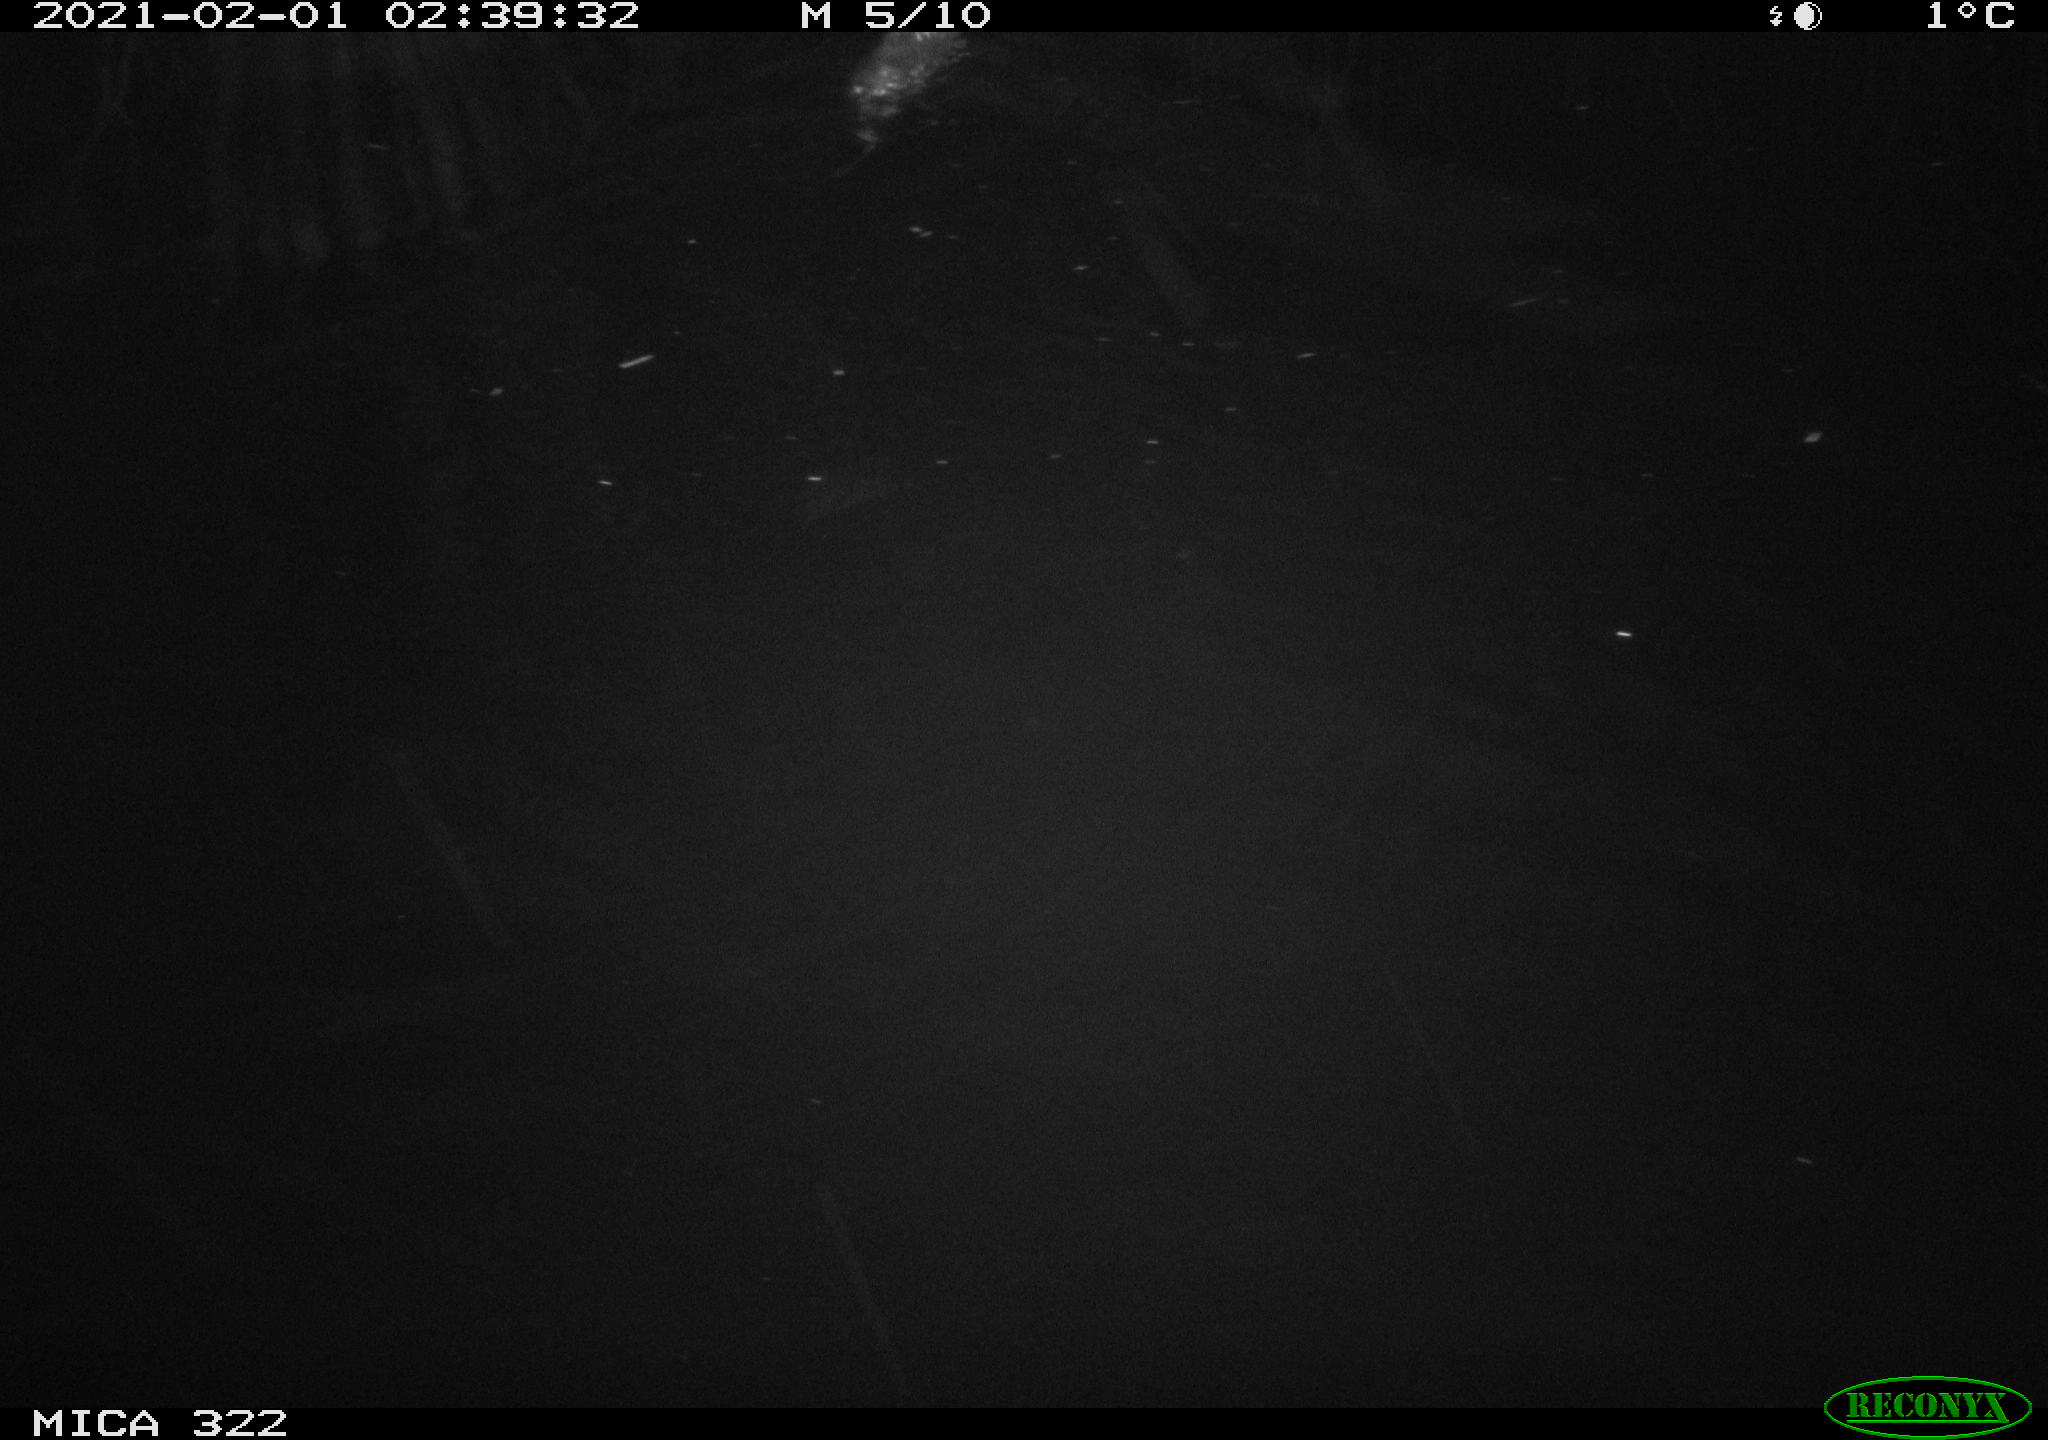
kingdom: Animalia
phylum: Chordata
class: Mammalia
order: Rodentia
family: Muridae
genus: Rattus
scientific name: Rattus norvegicus
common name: Brown rat
